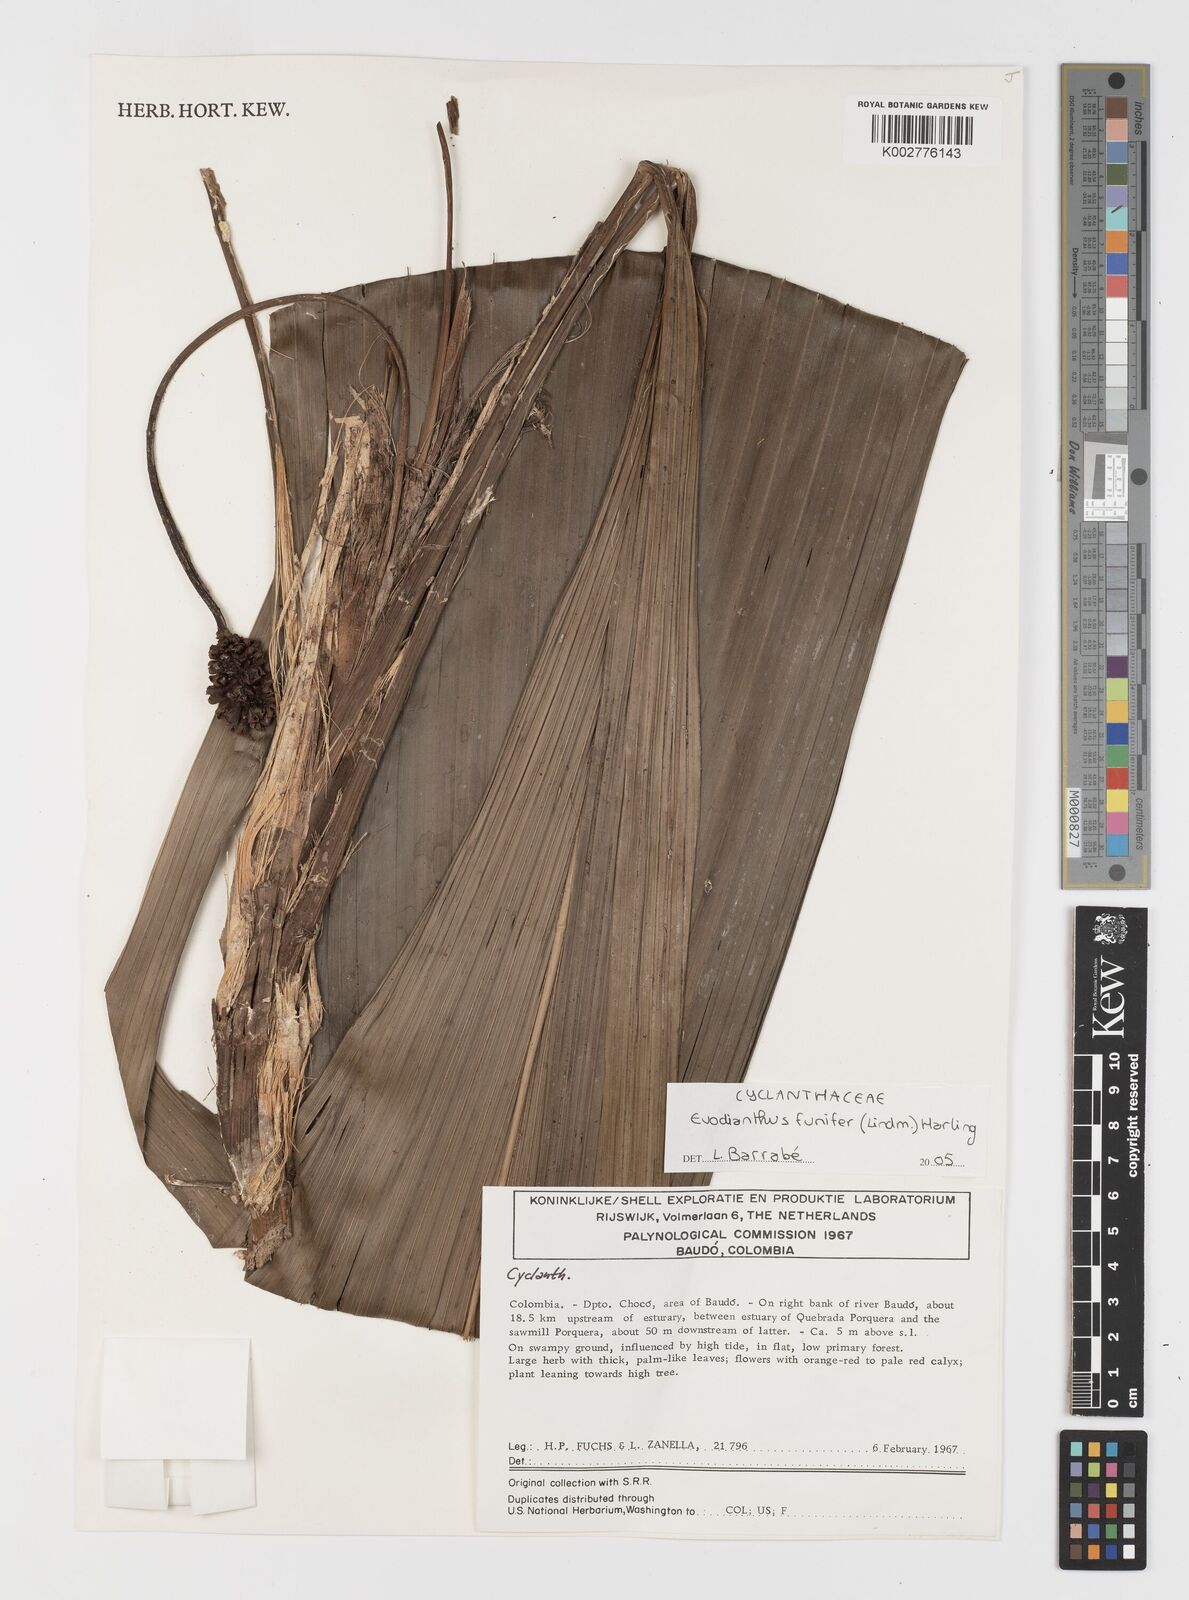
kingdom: Plantae
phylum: Tracheophyta
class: Liliopsida
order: Pandanales
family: Cyclanthaceae
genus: Evodianthus
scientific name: Evodianthus funifer
